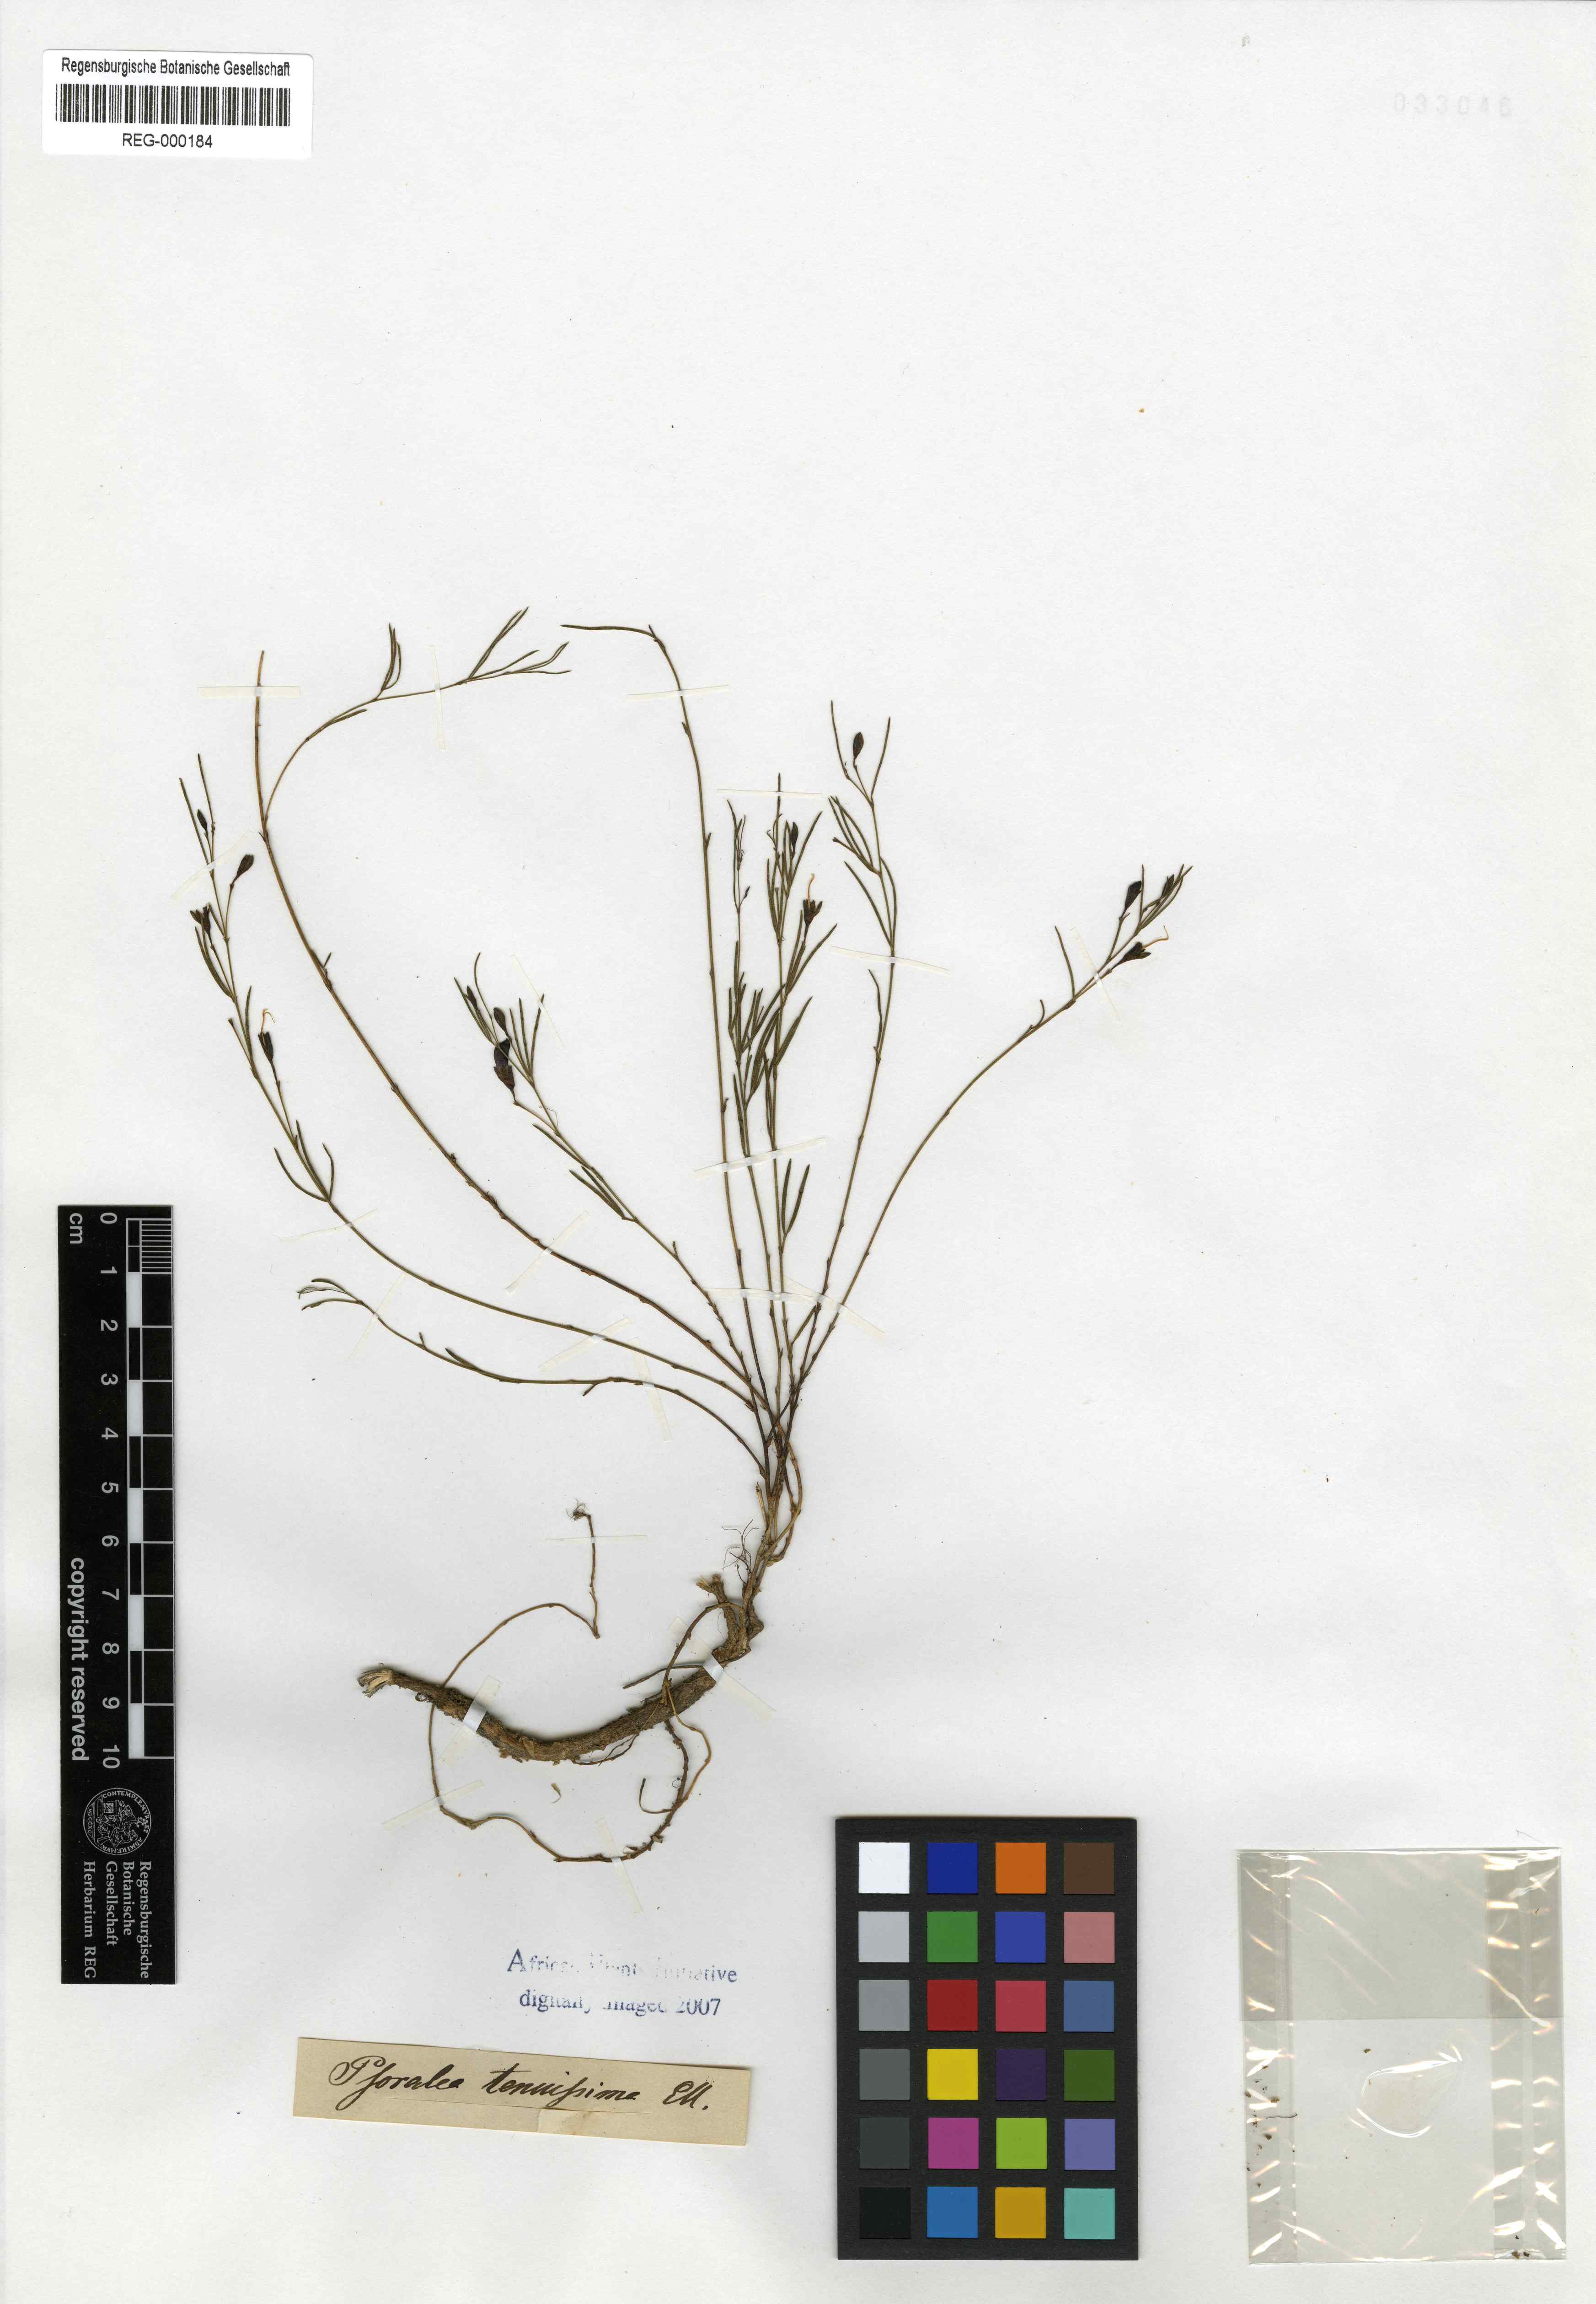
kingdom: Plantae
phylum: Tracheophyta
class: Magnoliopsida
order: Fabales
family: Fabaceae
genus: Psoralea
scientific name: Psoralea tenuissima
